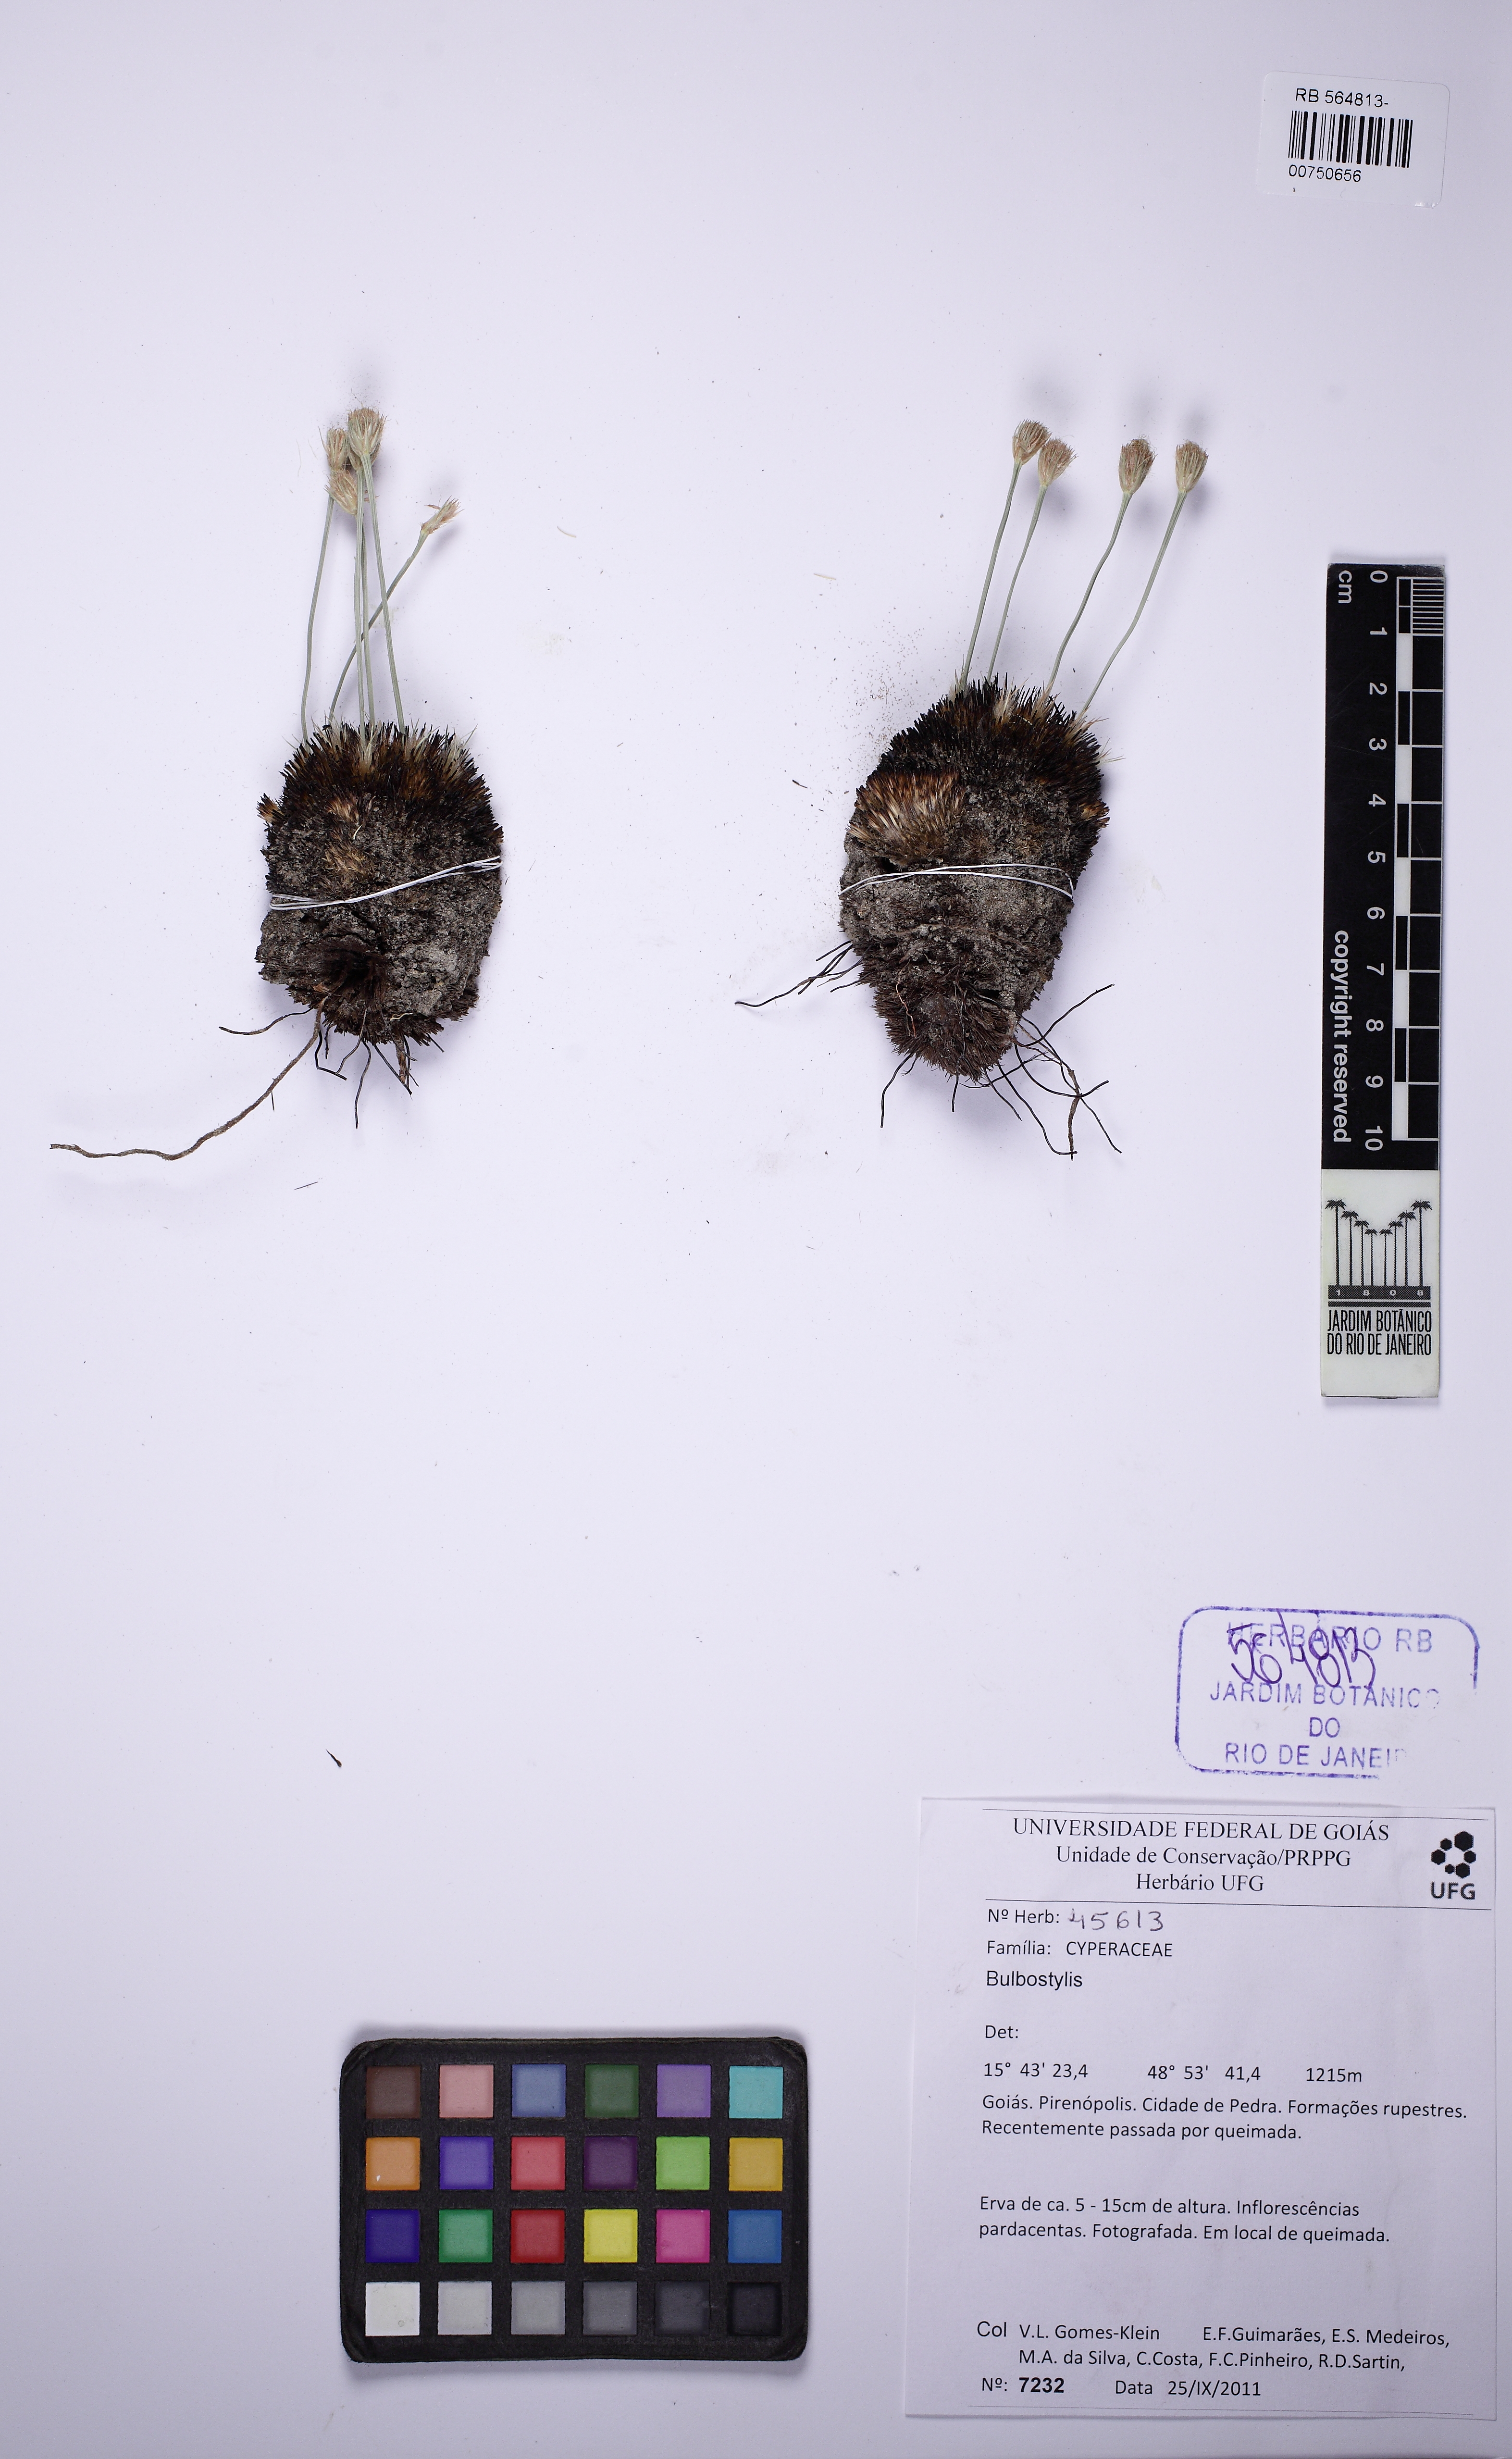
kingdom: Plantae
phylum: Tracheophyta
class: Liliopsida
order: Poales
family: Cyperaceae
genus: Bulbostylis
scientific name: Bulbostylis paradoxa
